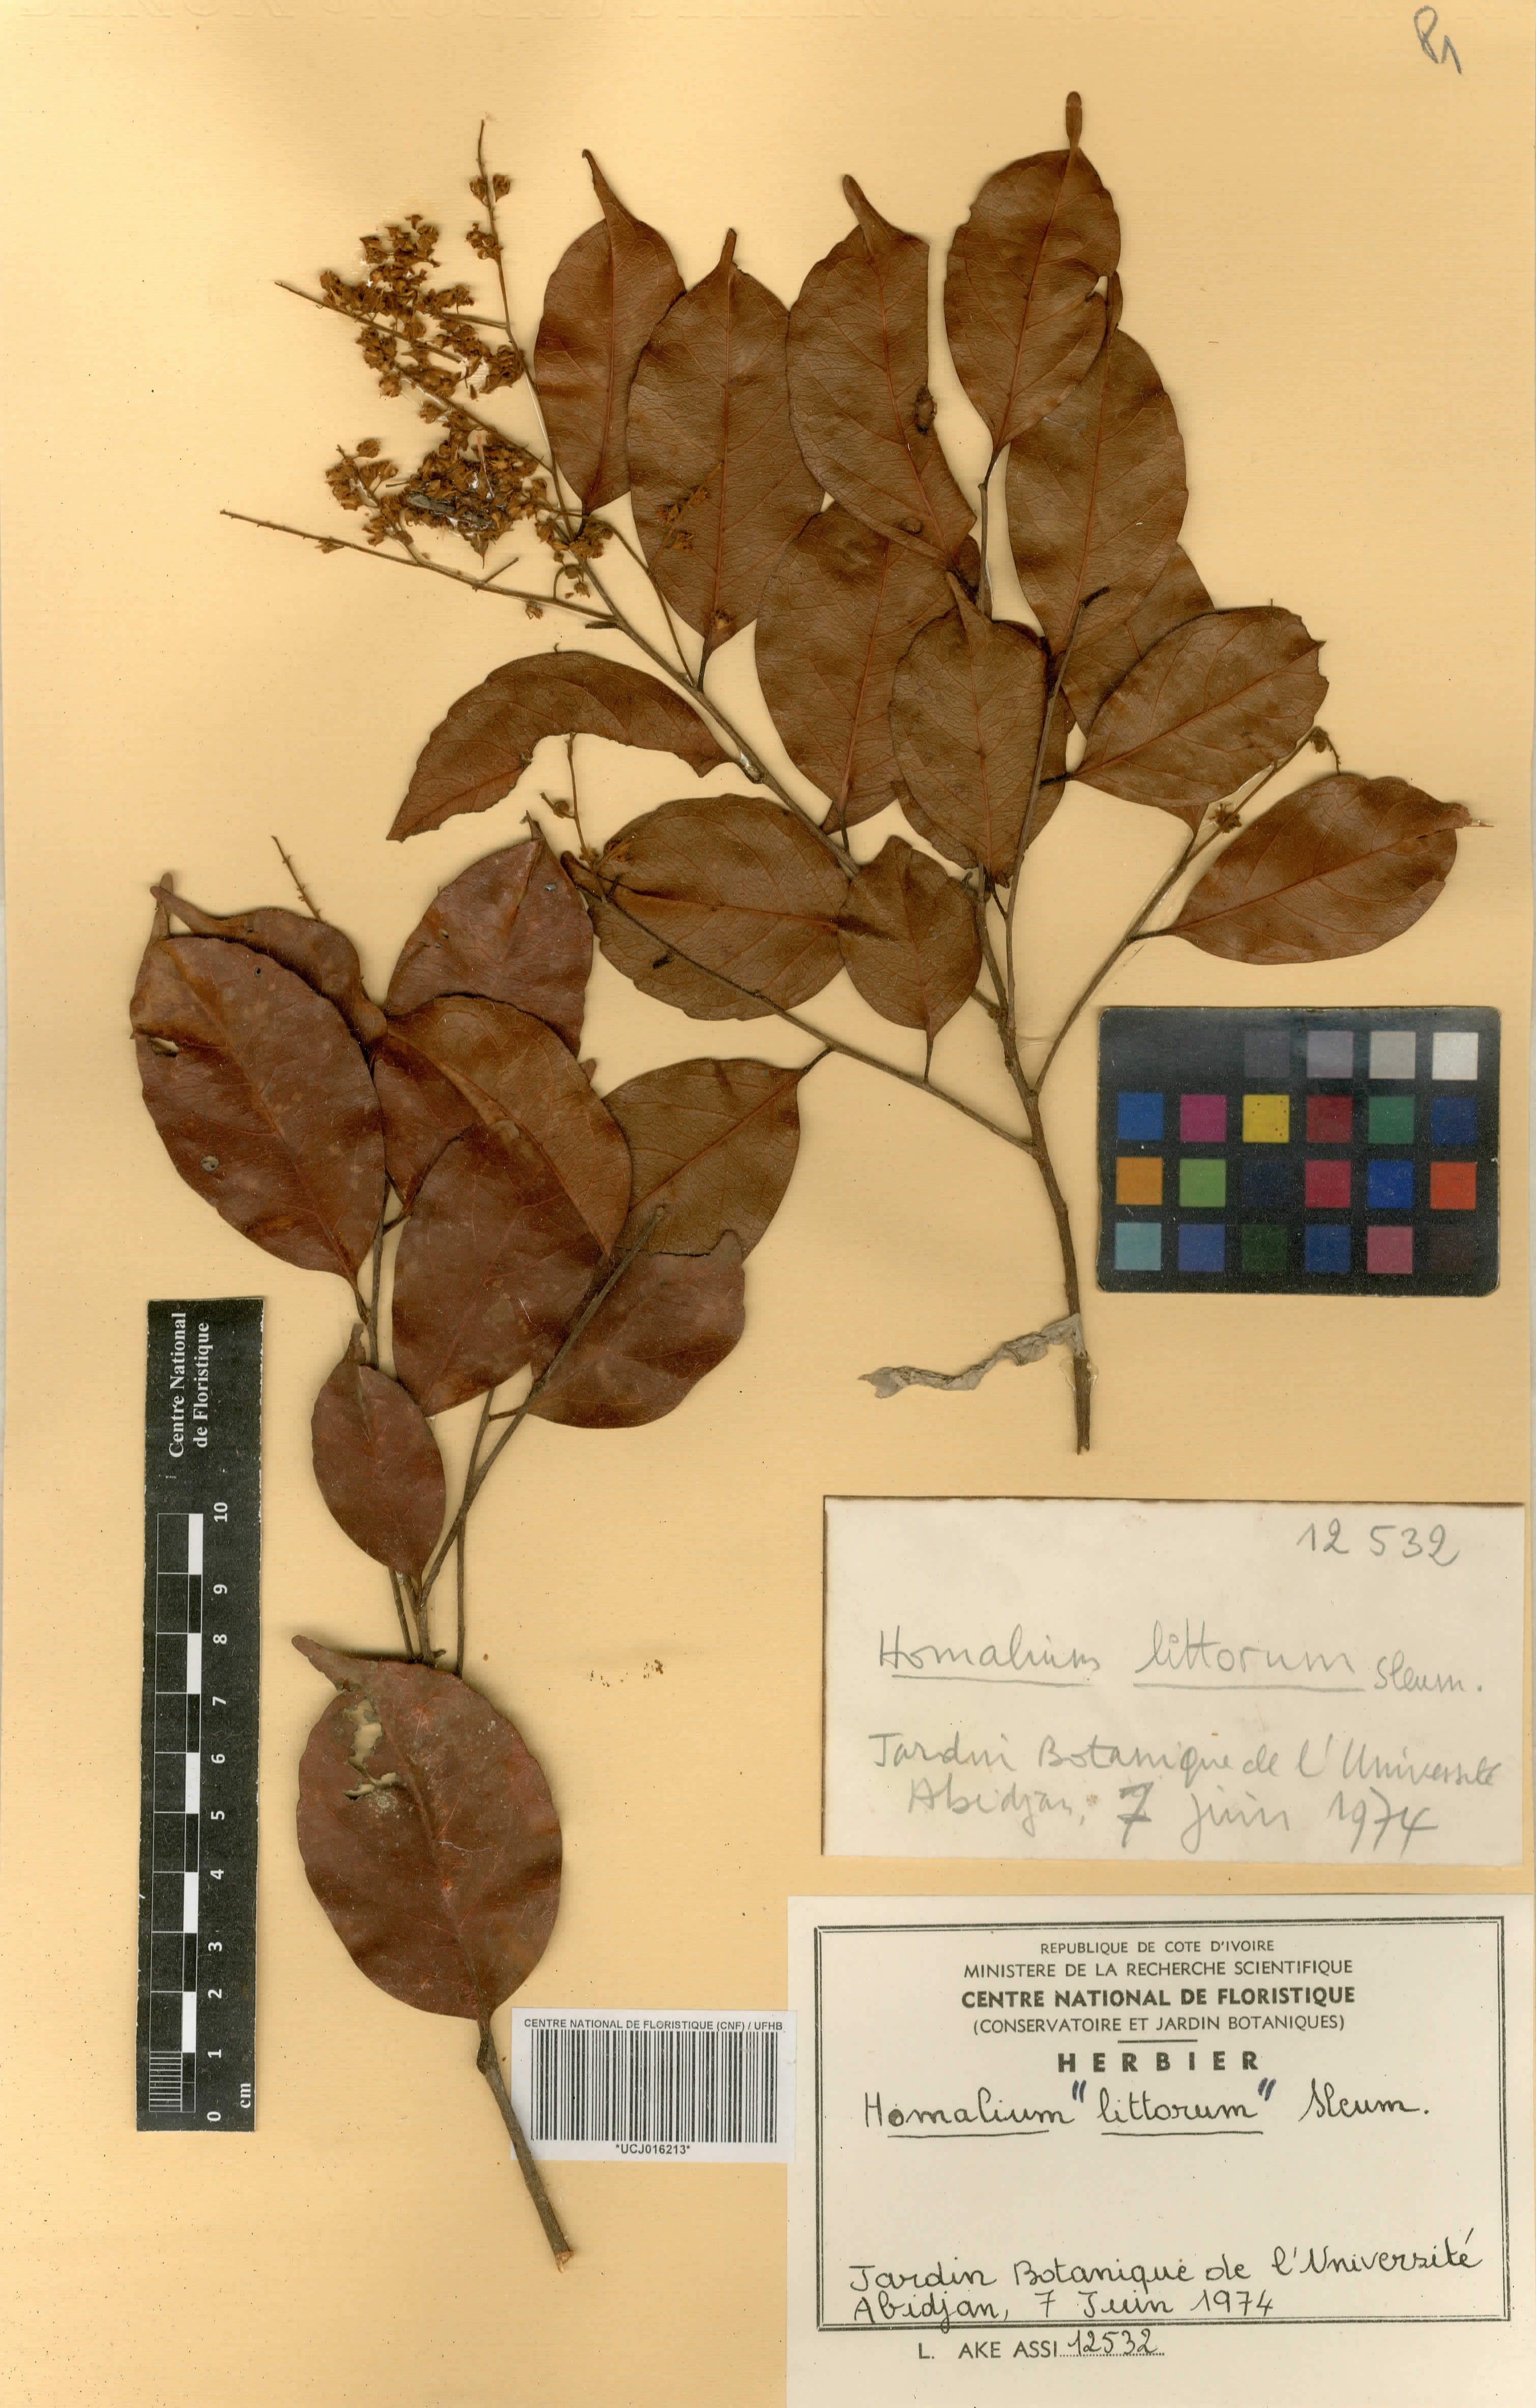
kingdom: Plantae
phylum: Tracheophyta
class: Magnoliopsida
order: Malpighiales
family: Salicaceae
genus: Homalium
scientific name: Homalium
